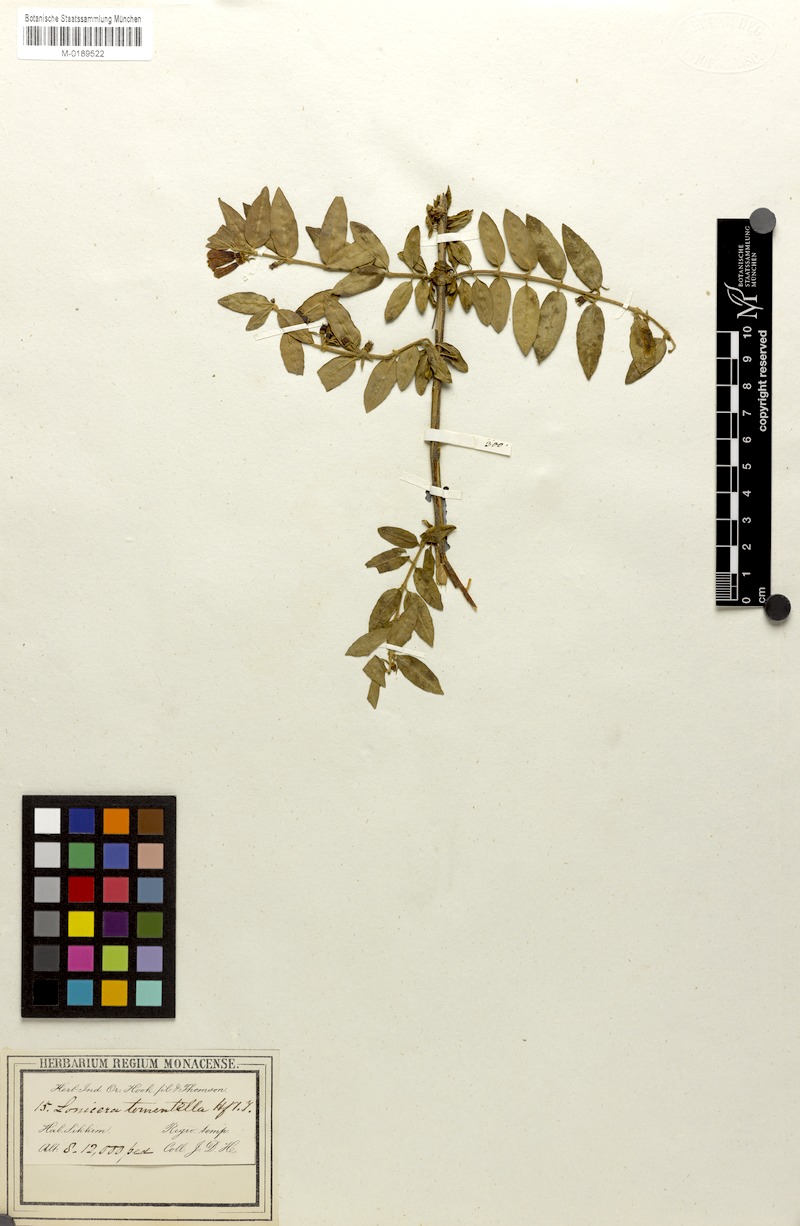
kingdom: Plantae
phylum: Tracheophyta
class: Magnoliopsida
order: Dipsacales
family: Caprifoliaceae
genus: Lonicera
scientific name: Lonicera tomentella
